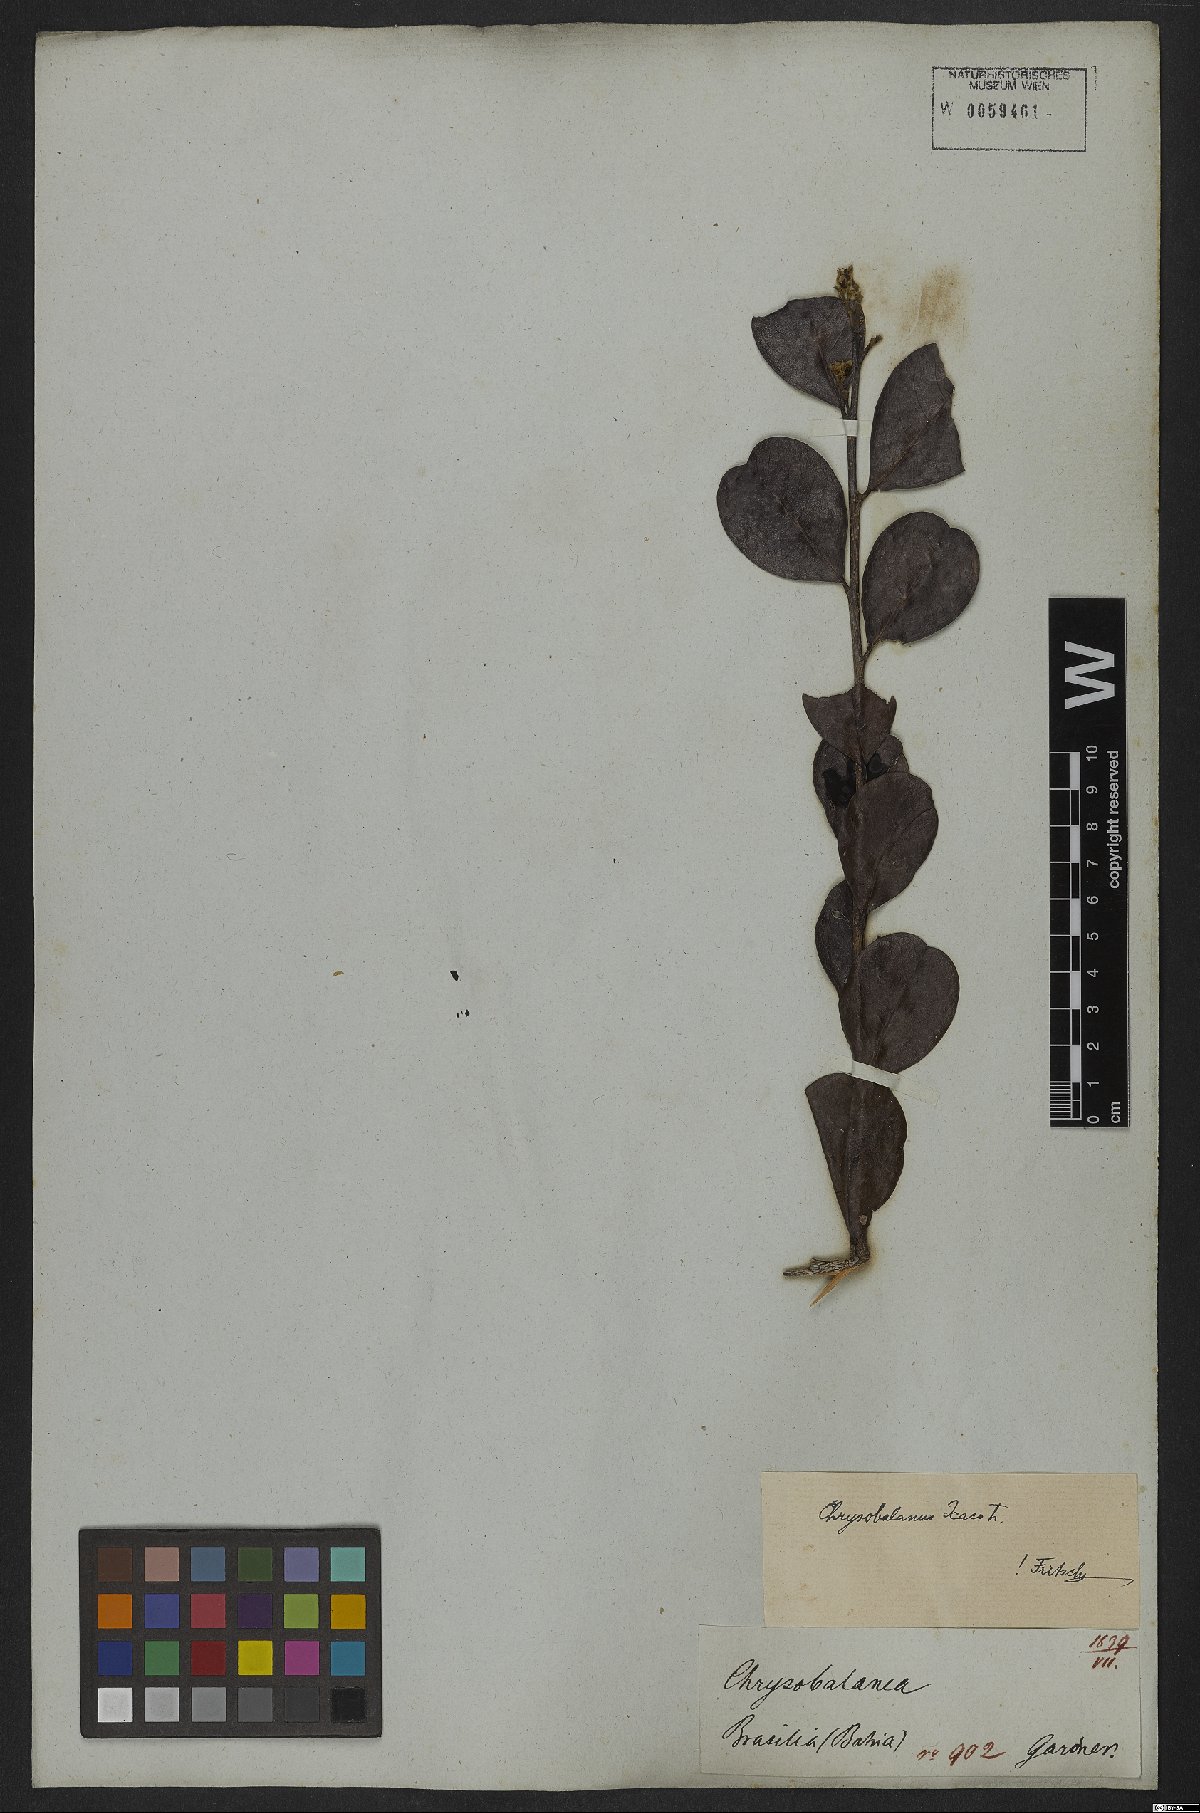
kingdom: Plantae
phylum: Tracheophyta
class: Magnoliopsida
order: Malpighiales
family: Chrysobalanaceae
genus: Chrysobalanus
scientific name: Chrysobalanus icaco
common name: Coco plum
